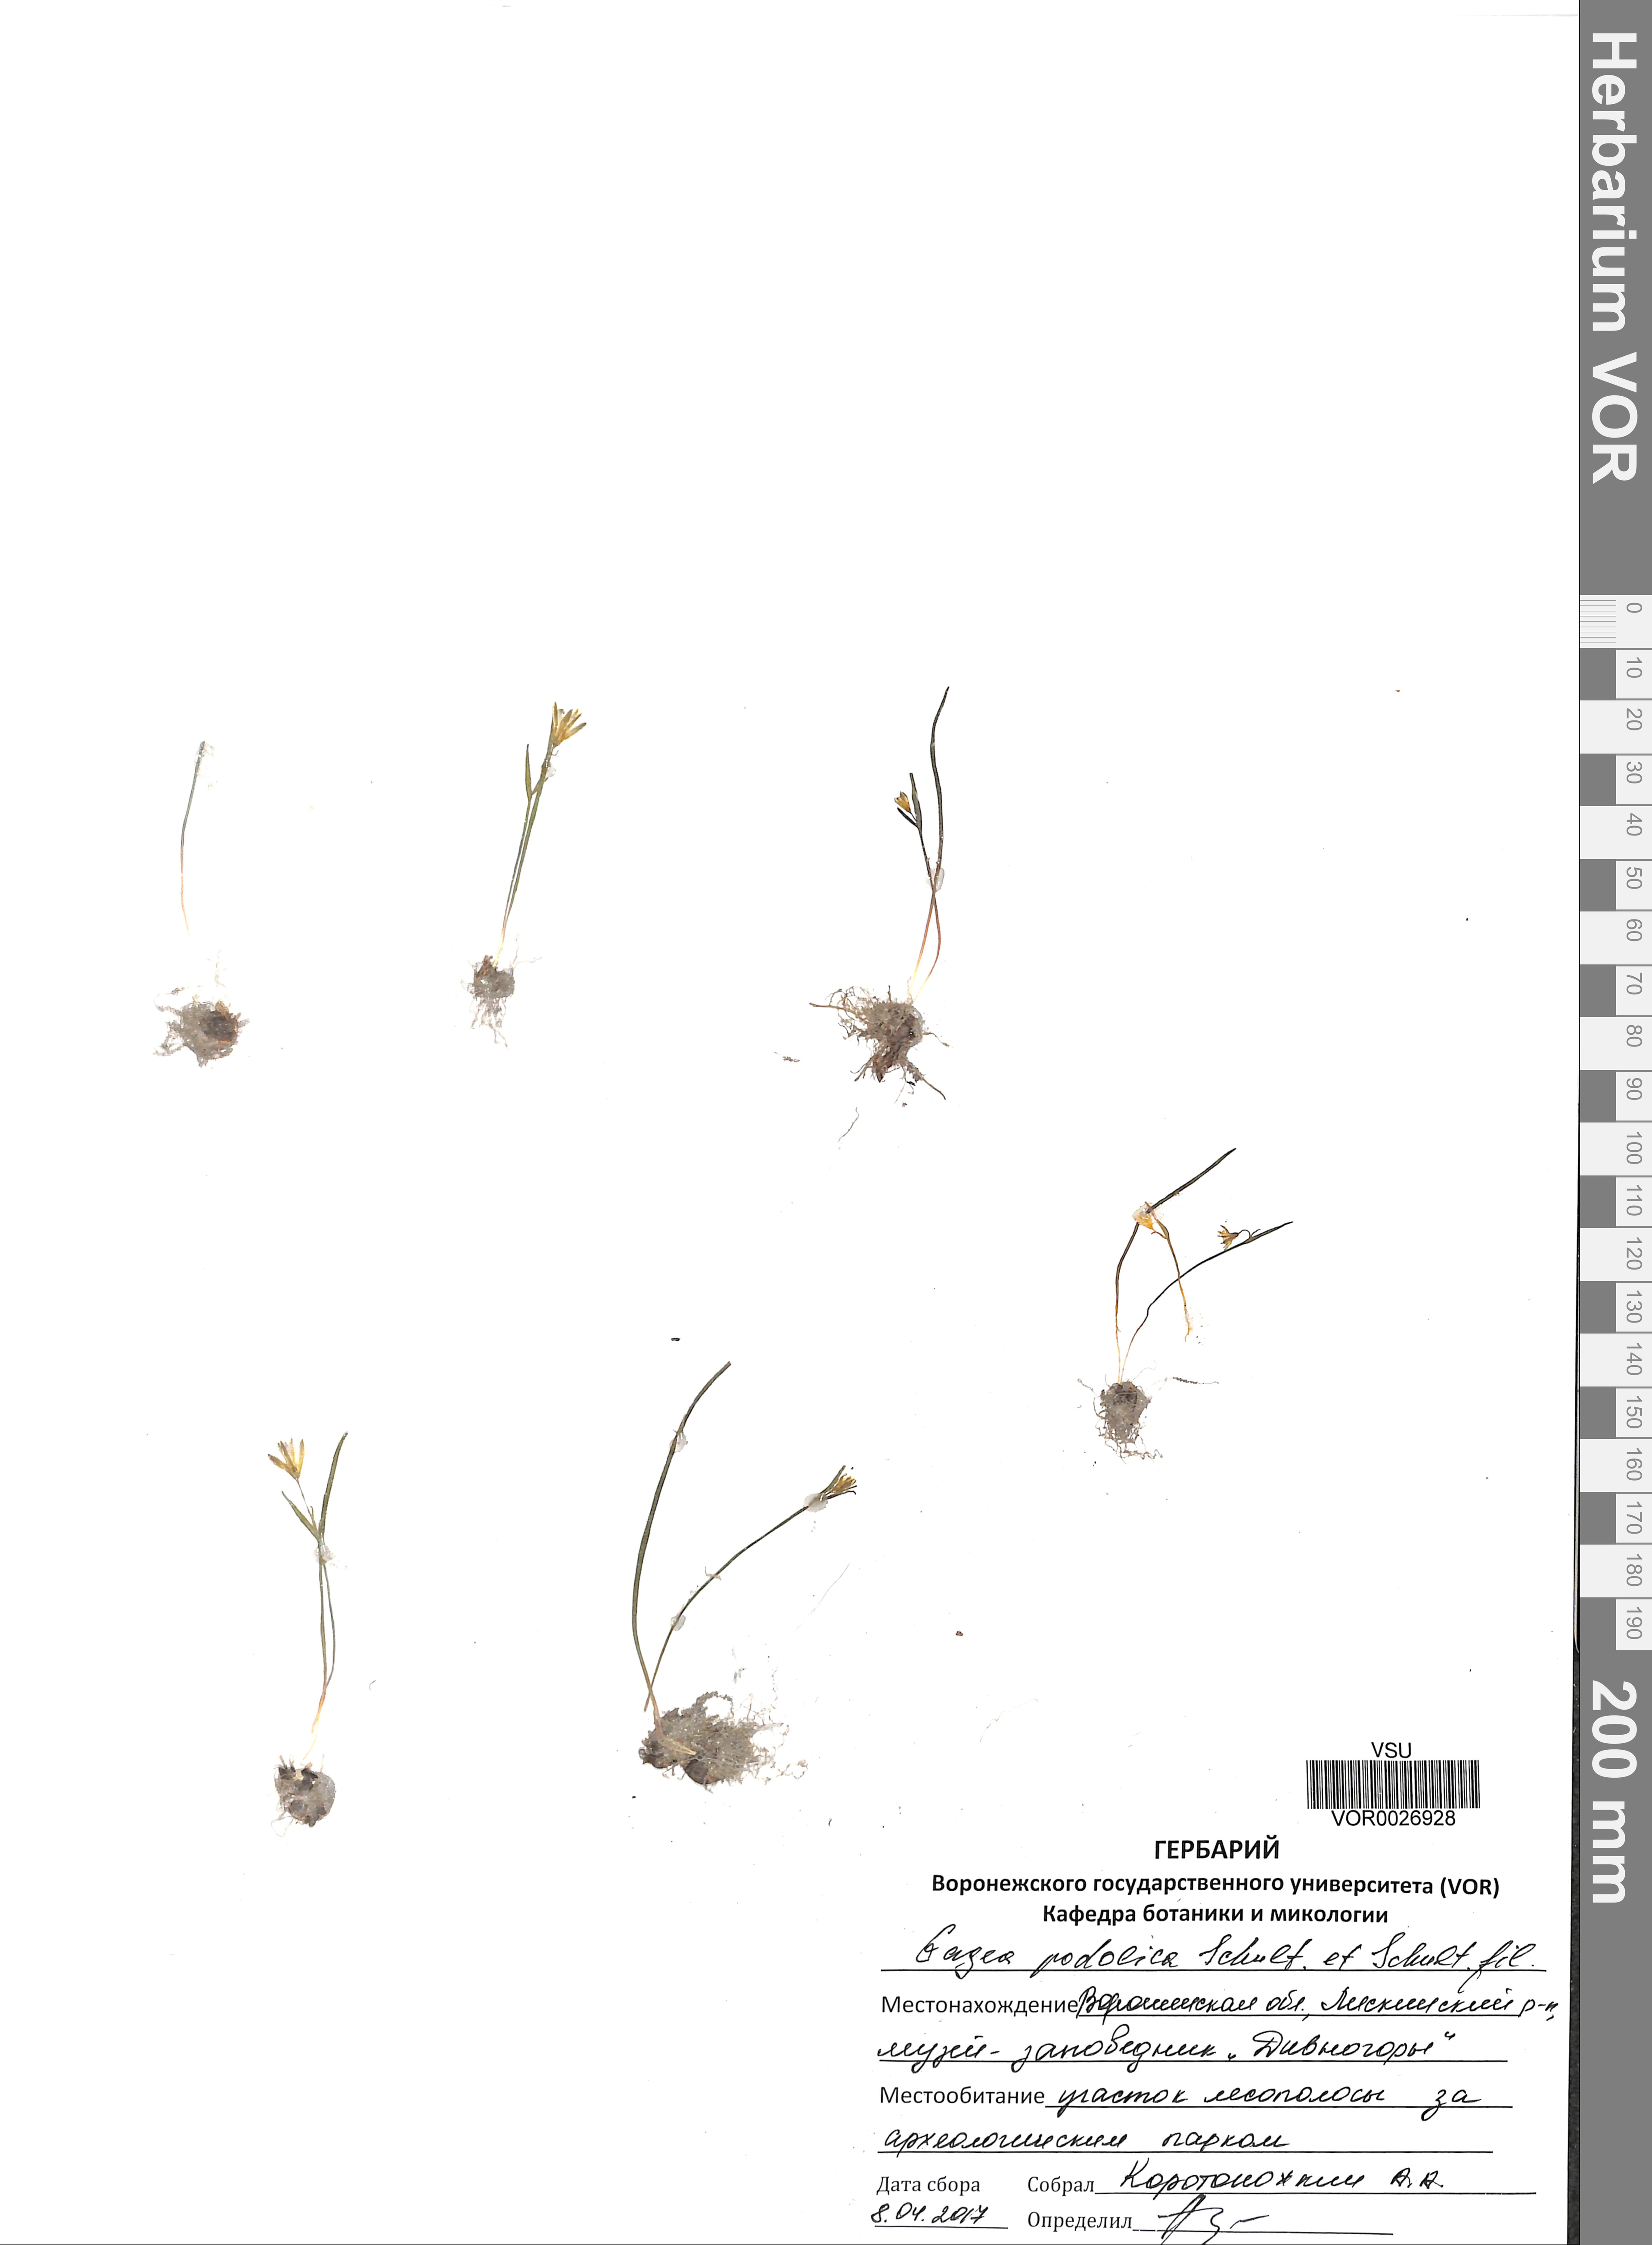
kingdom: Plantae
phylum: Tracheophyta
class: Liliopsida
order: Liliales
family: Liliaceae
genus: Gagea
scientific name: Gagea podolica
